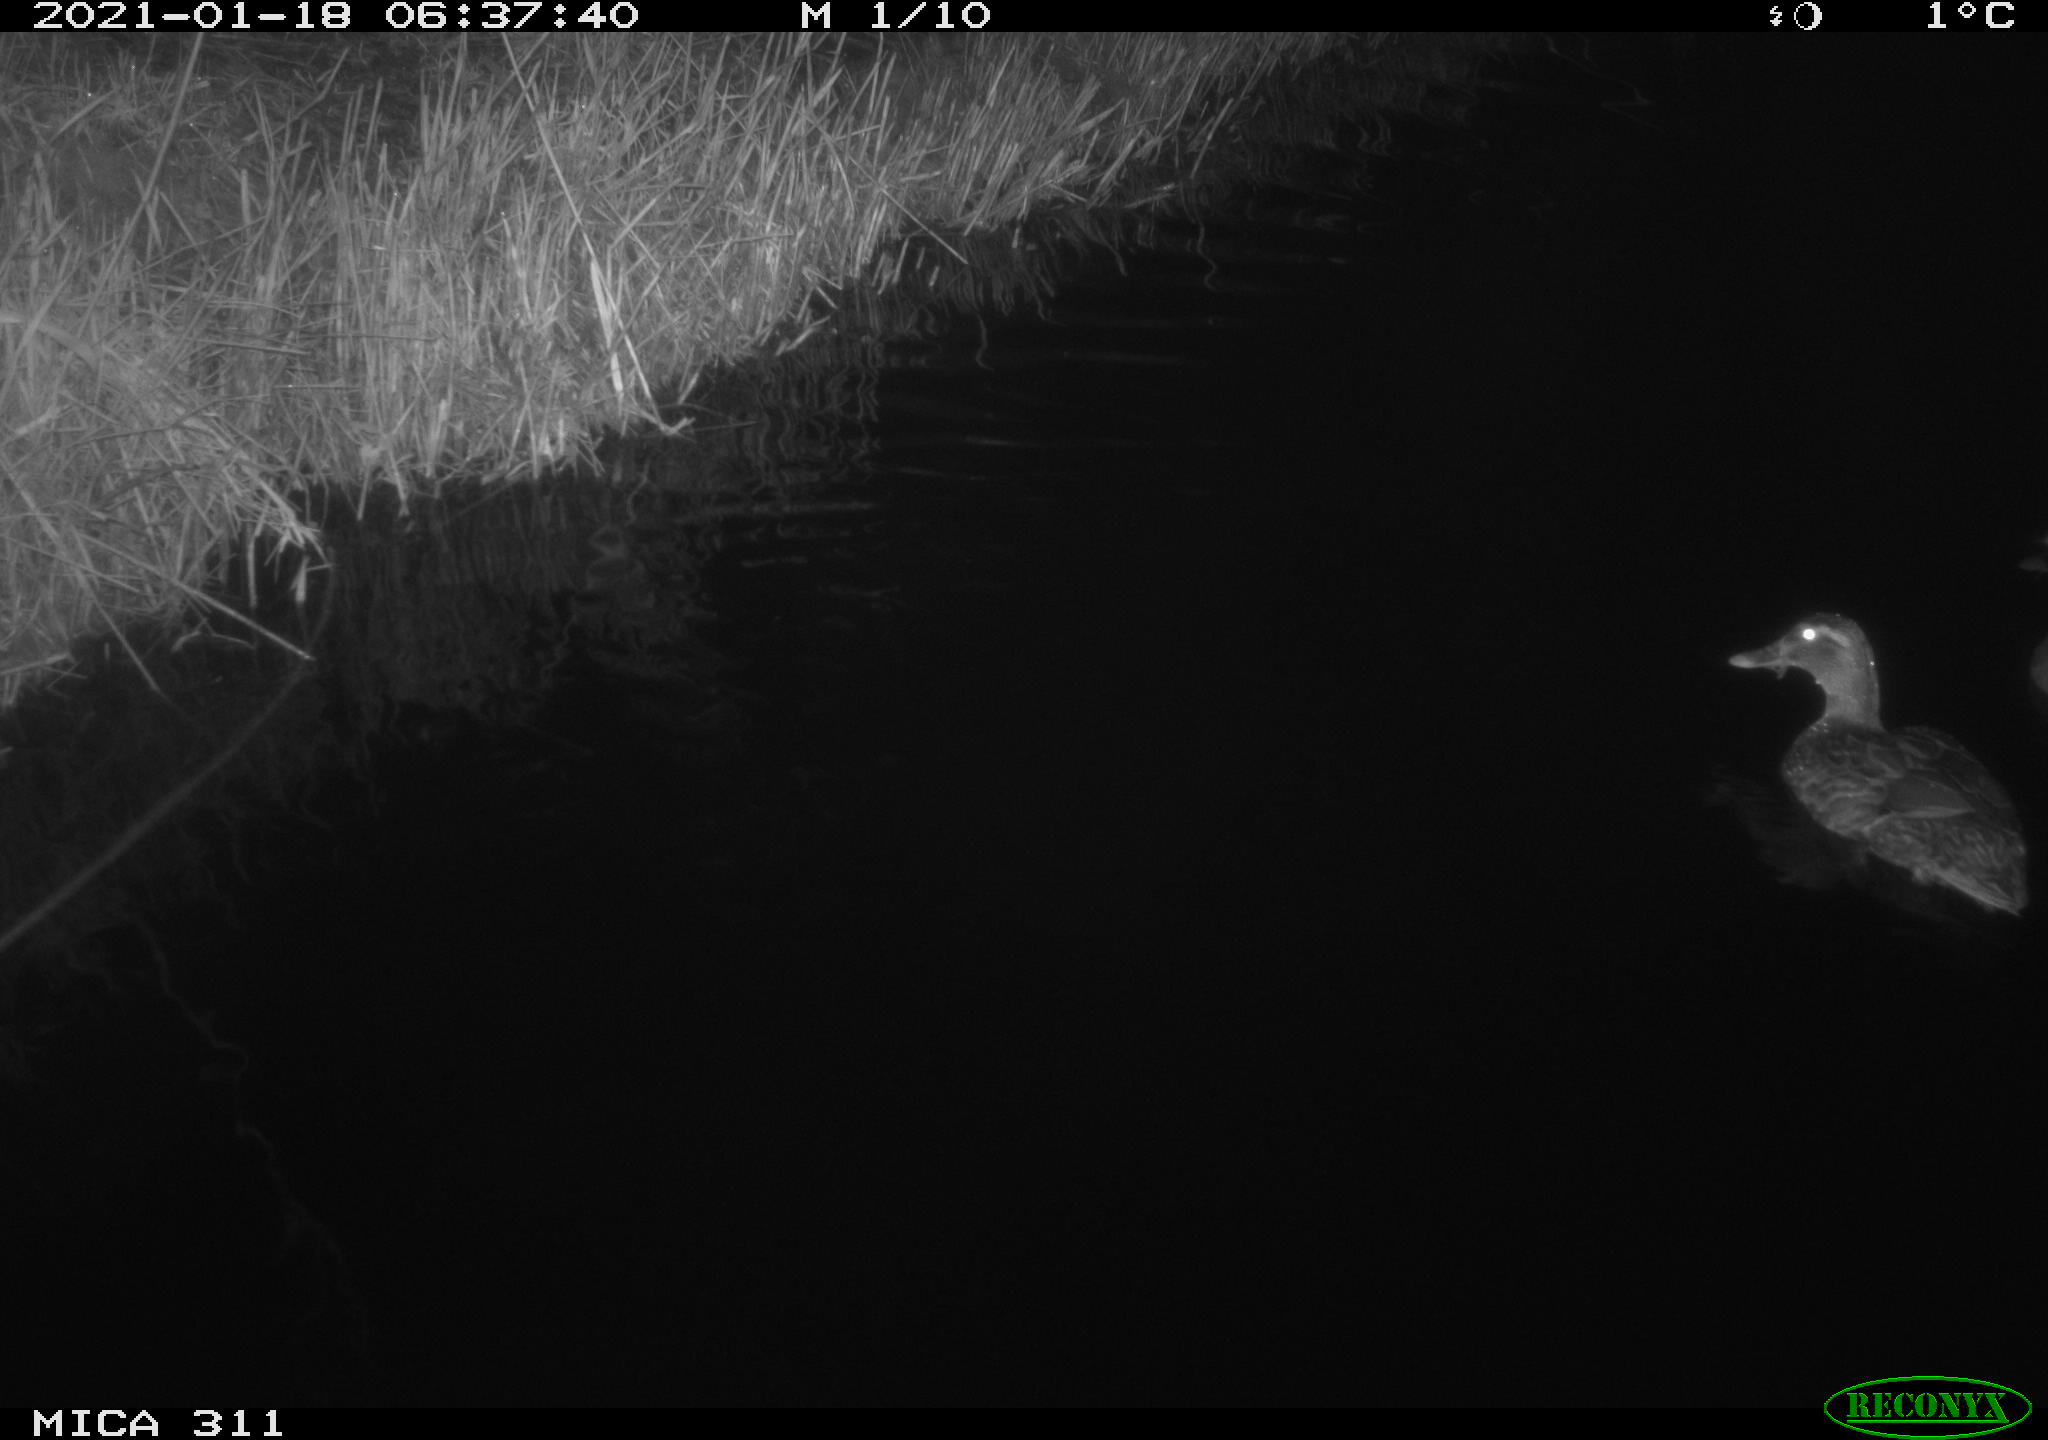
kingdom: Animalia
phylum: Chordata
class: Aves
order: Anseriformes
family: Anatidae
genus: Anas
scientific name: Anas
